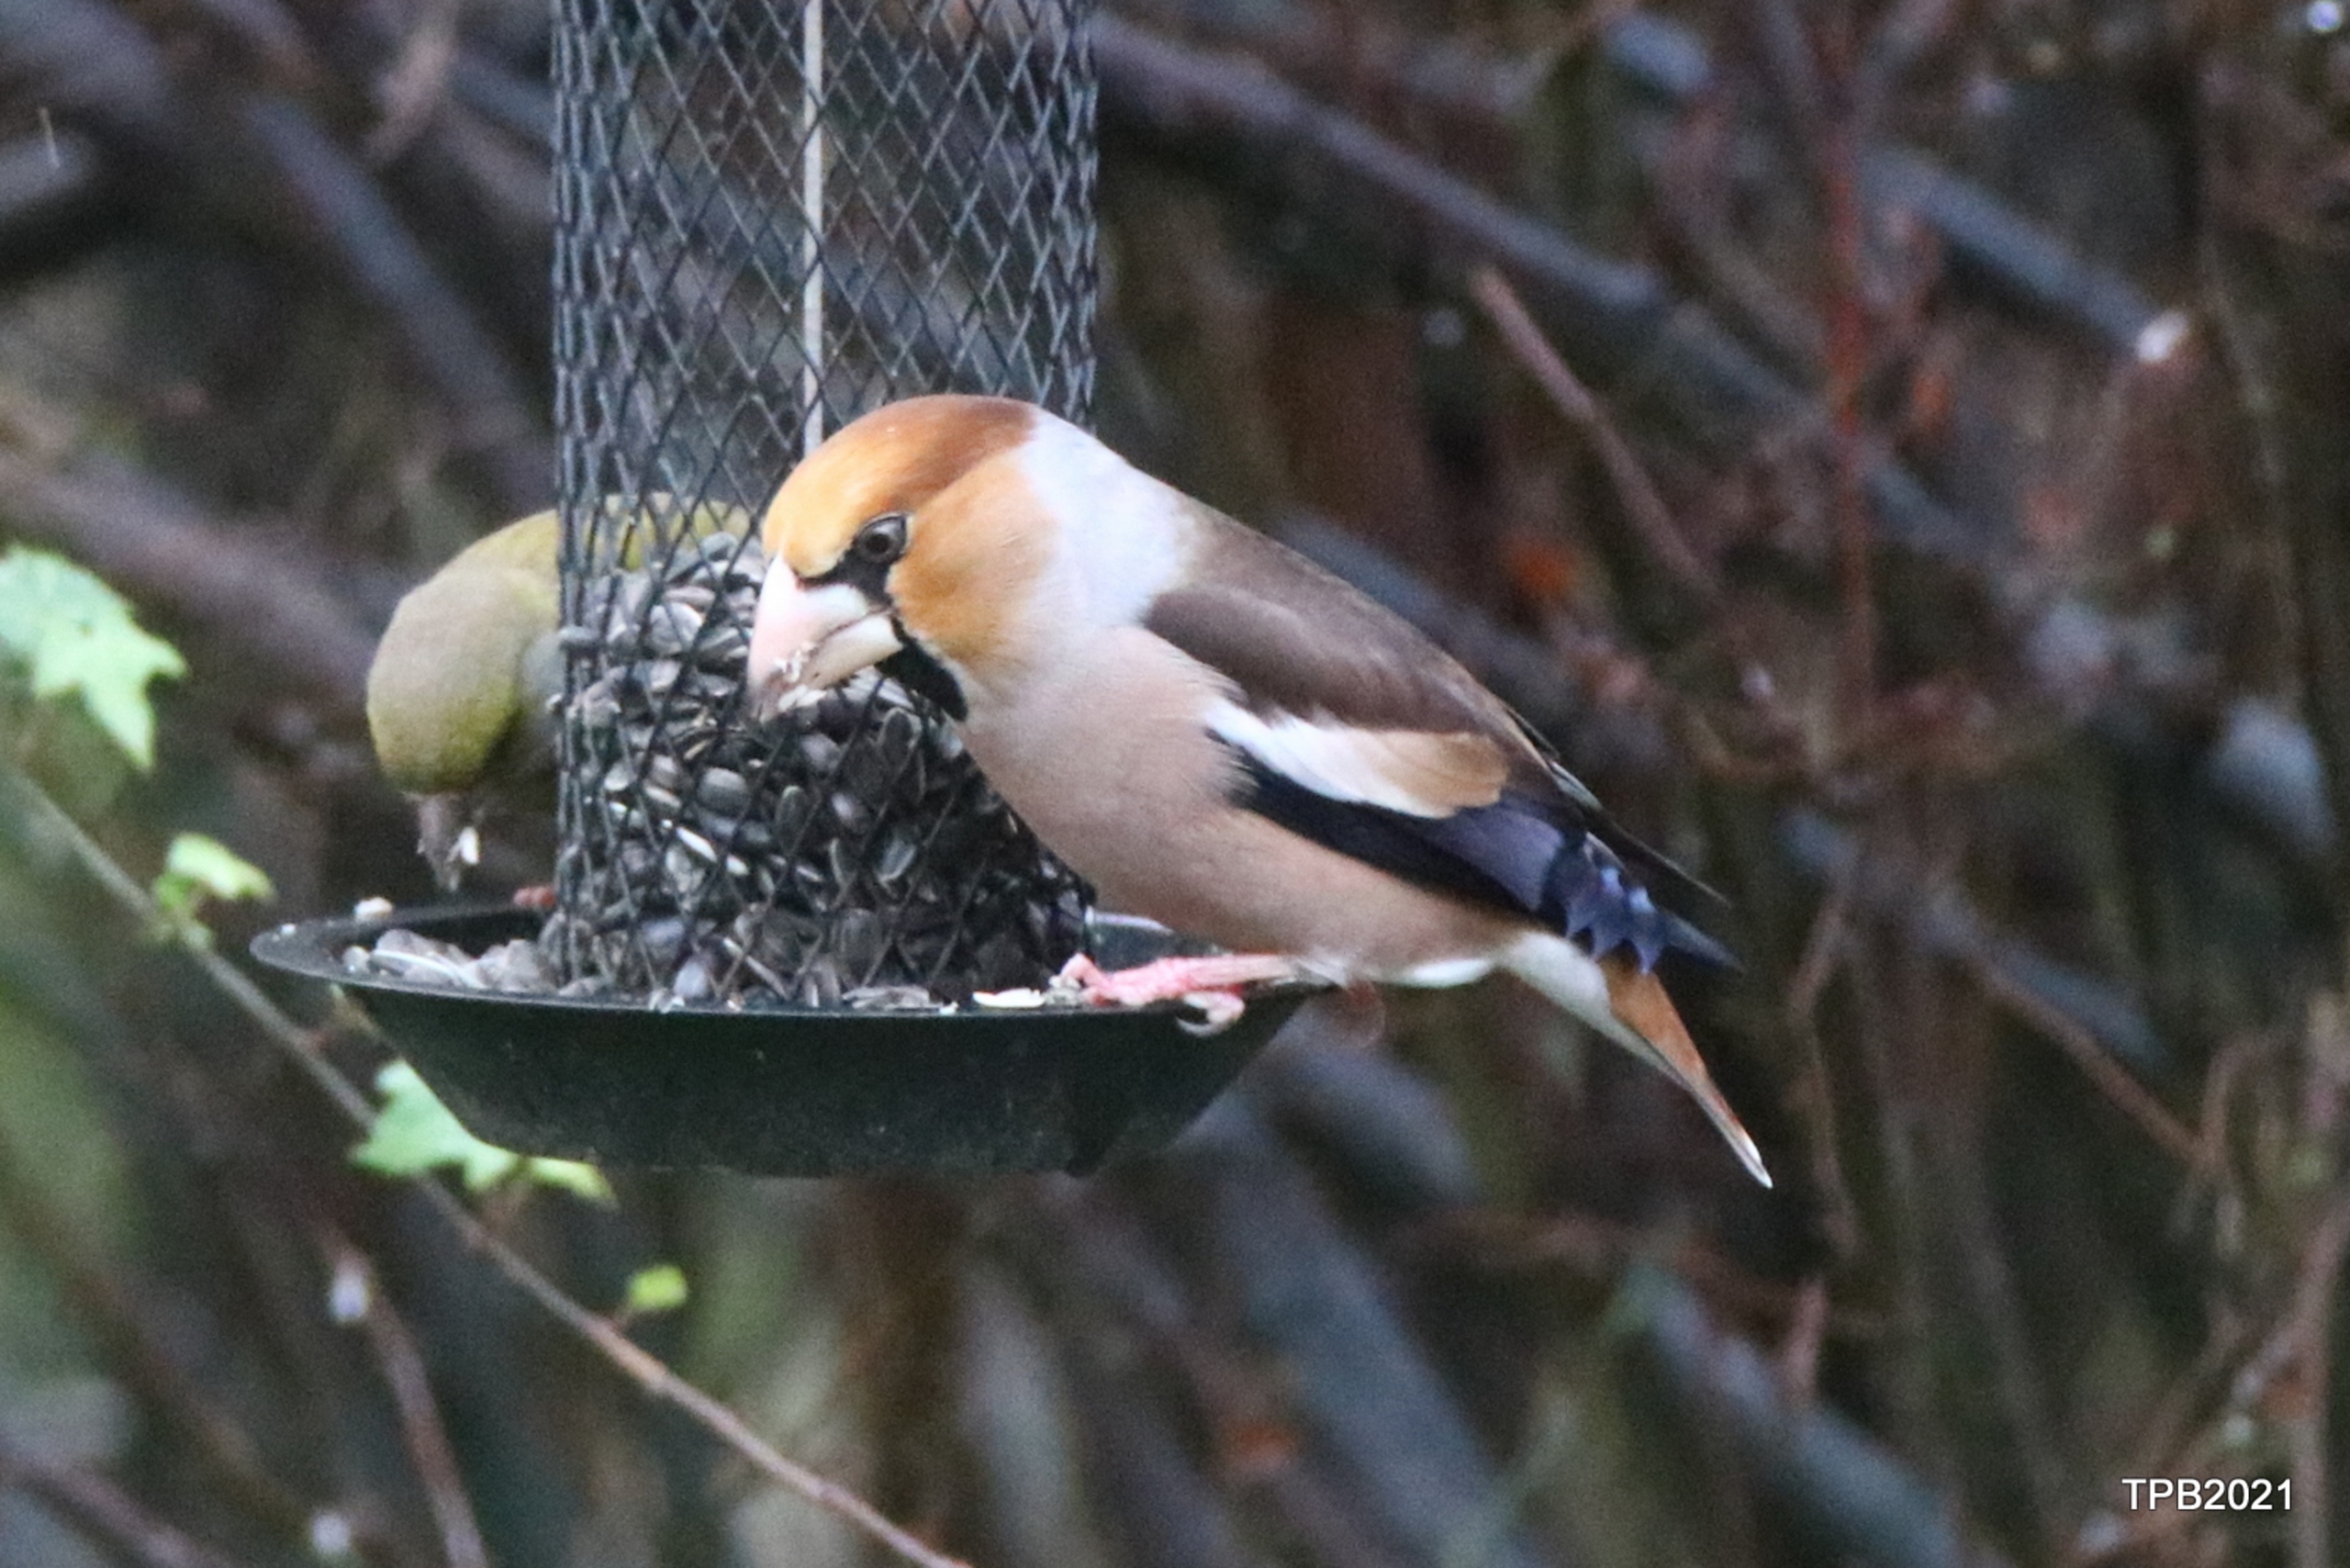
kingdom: Animalia
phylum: Chordata
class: Aves
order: Passeriformes
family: Fringillidae
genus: Coccothraustes
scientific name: Coccothraustes coccothraustes
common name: Kernebider
